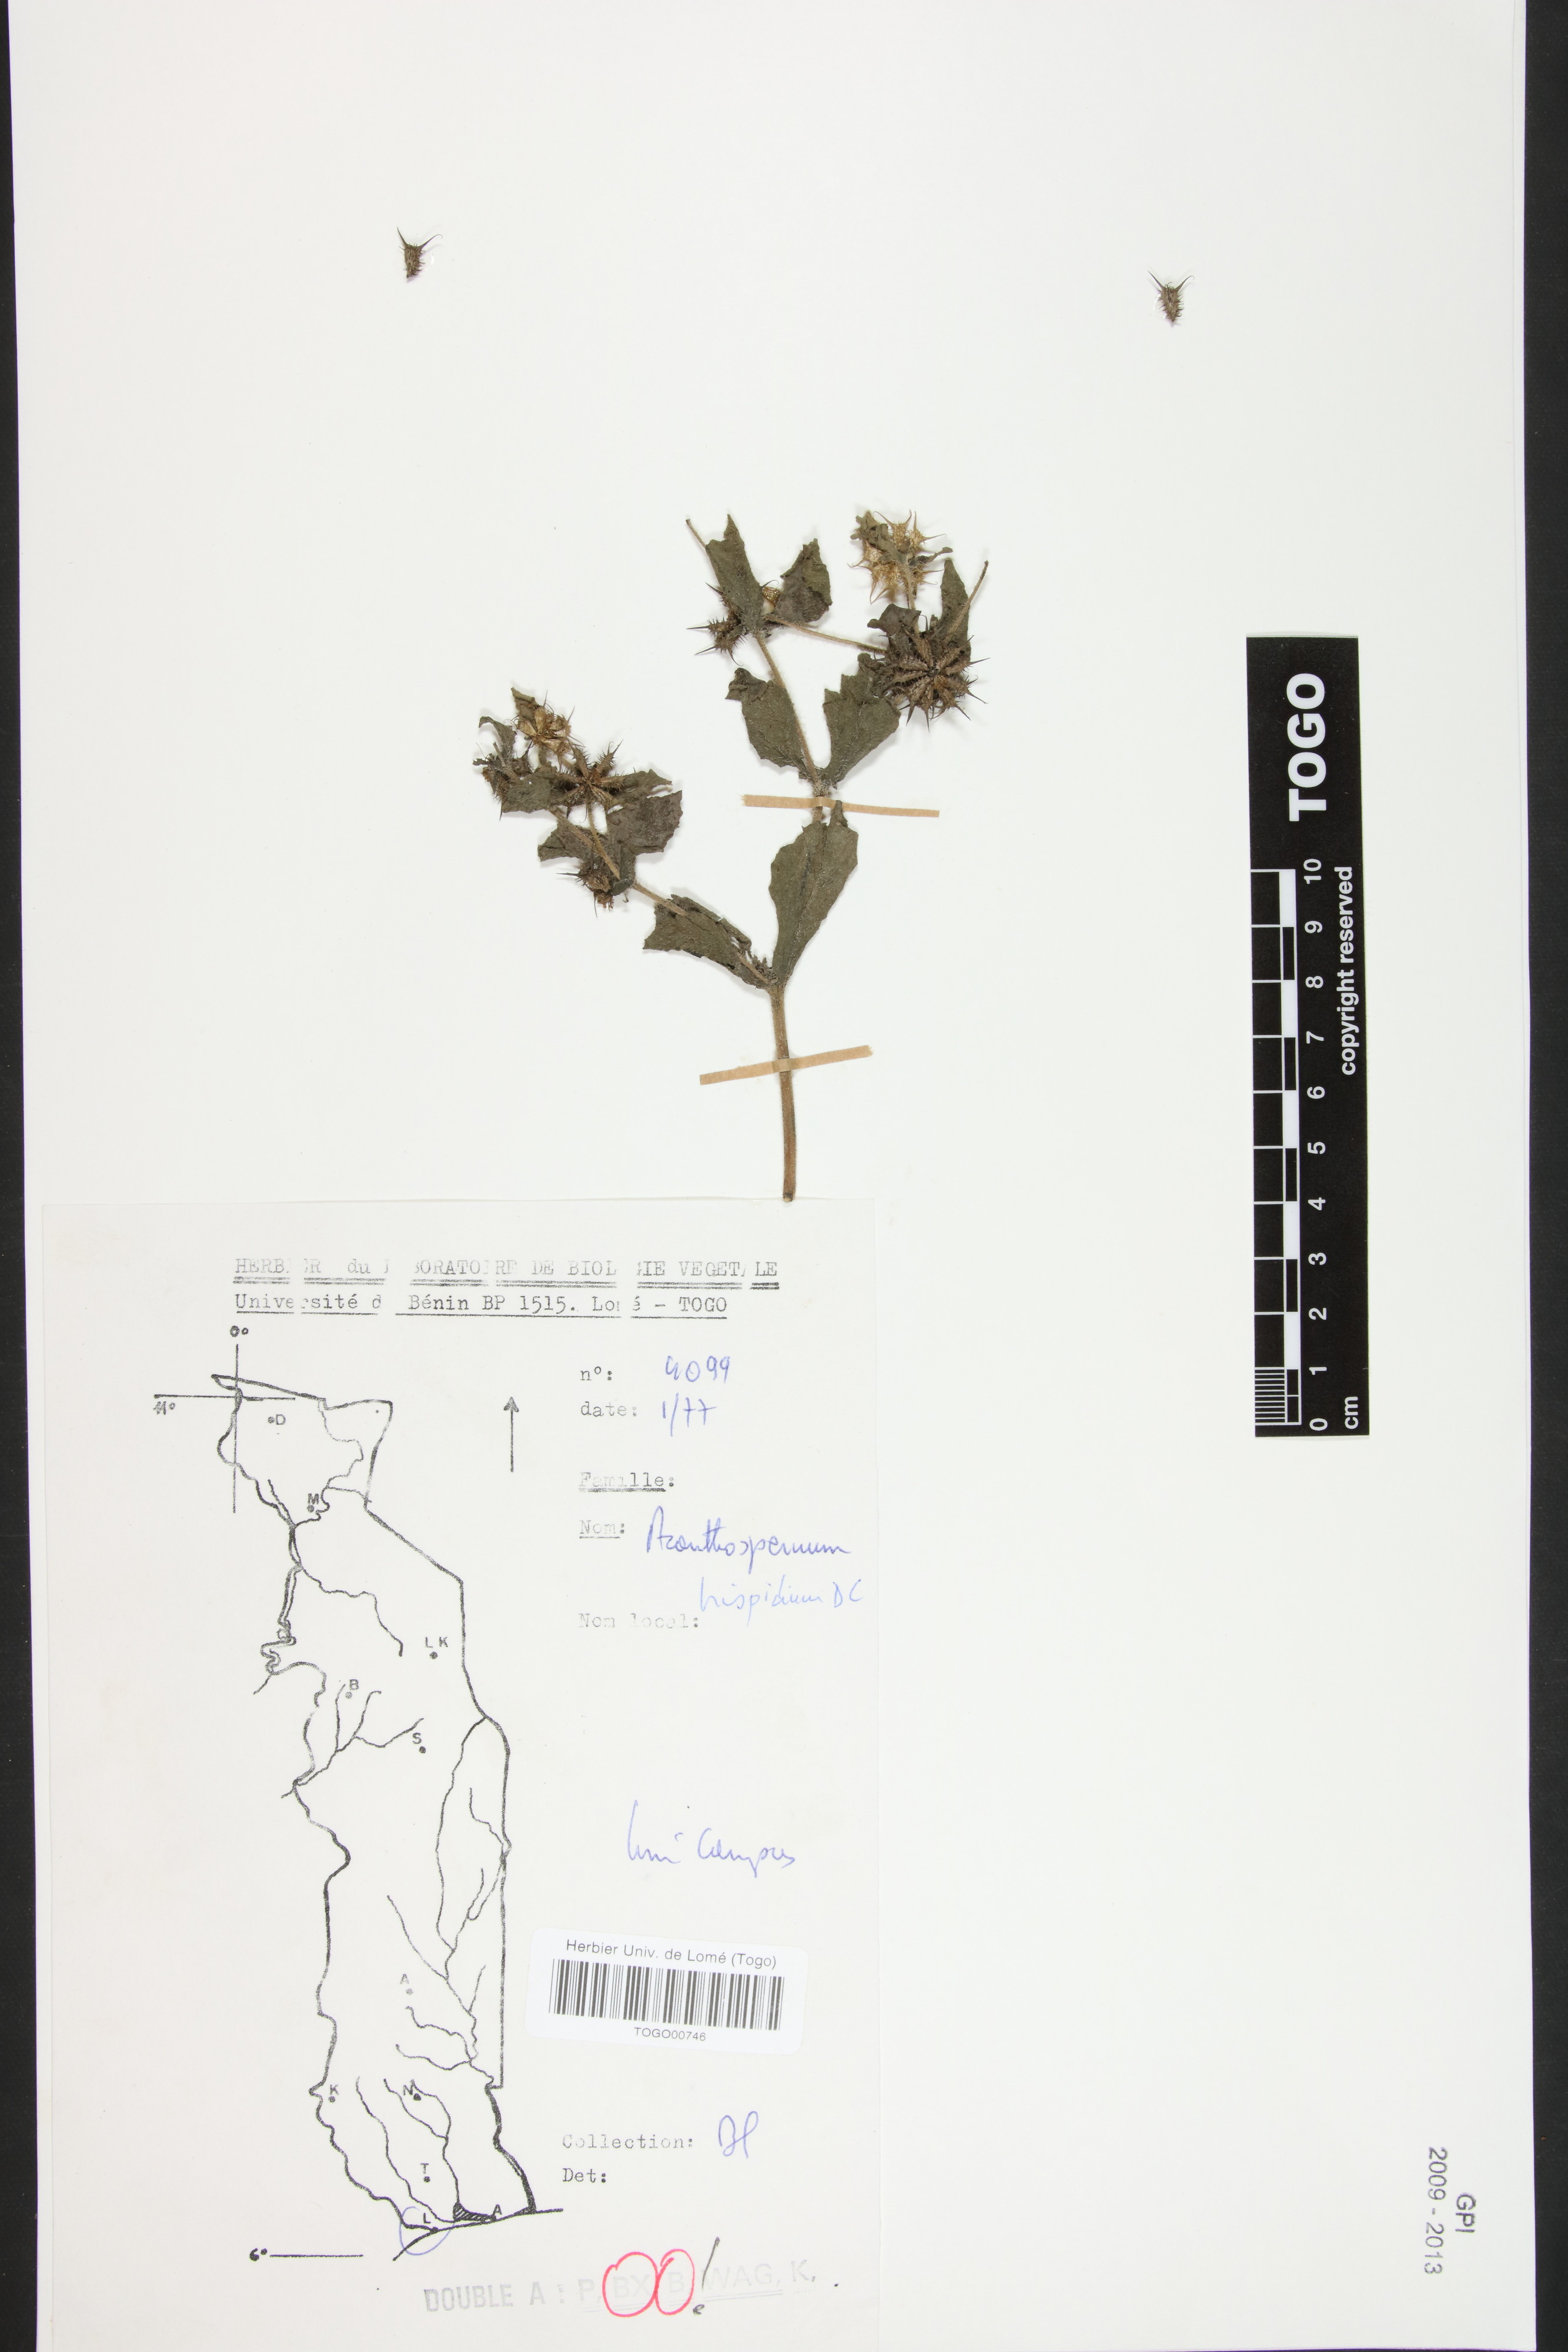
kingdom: Plantae
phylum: Tracheophyta
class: Magnoliopsida
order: Asterales
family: Asteraceae
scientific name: Asteraceae
